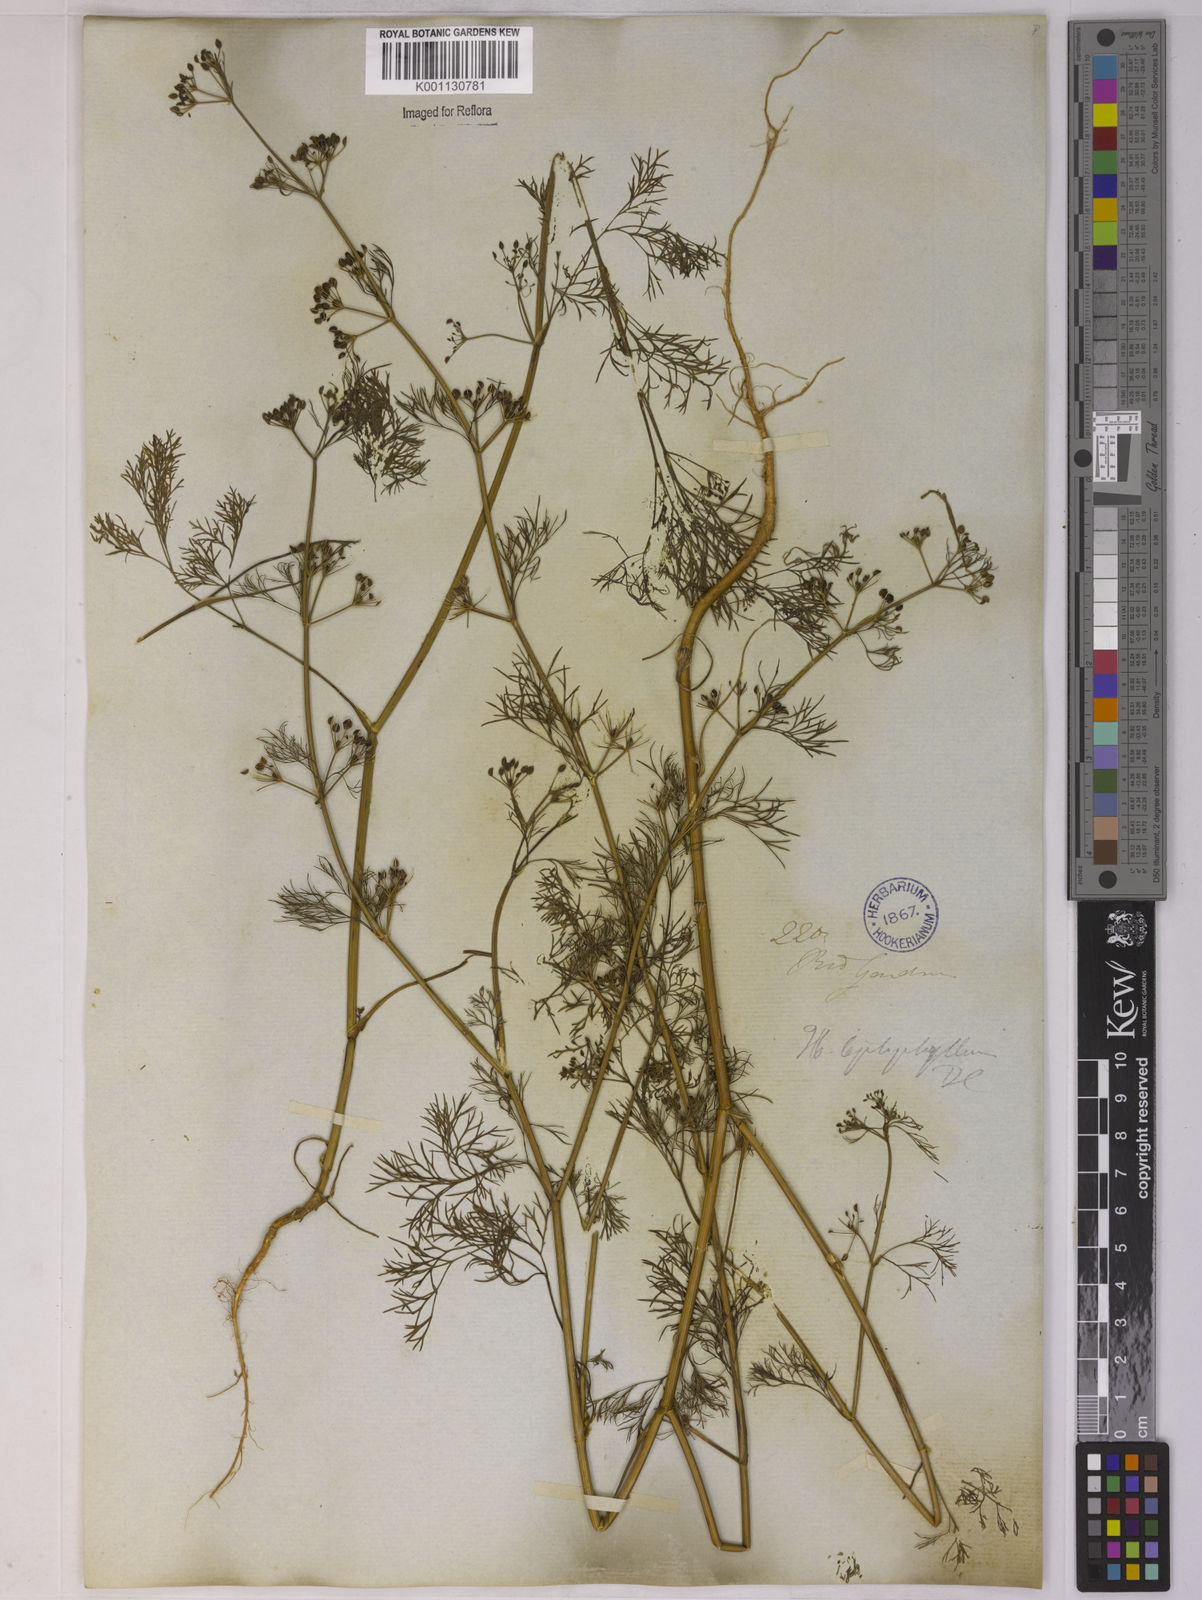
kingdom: Plantae
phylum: Tracheophyta
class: Magnoliopsida
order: Apiales
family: Apiaceae
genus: Apium
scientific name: Apium
